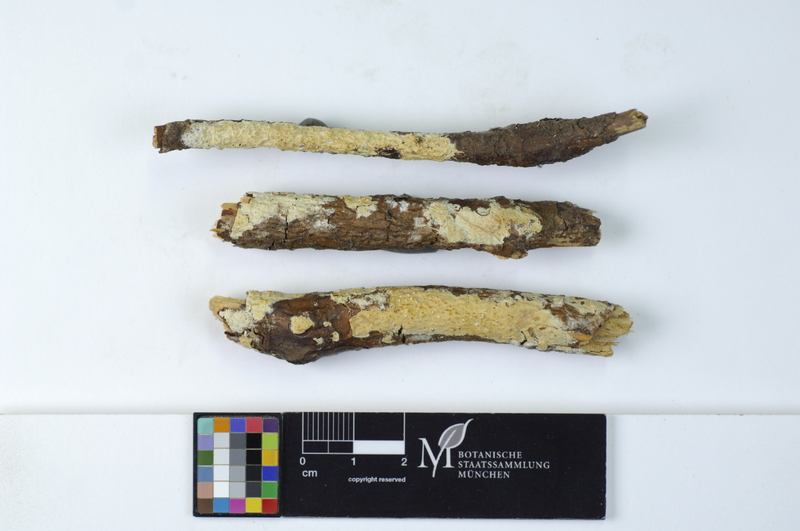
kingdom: Fungi
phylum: Basidiomycota
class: Agaricomycetes
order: Hymenochaetales
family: Schizoporaceae
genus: Xylodon
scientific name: Xylodon radula
